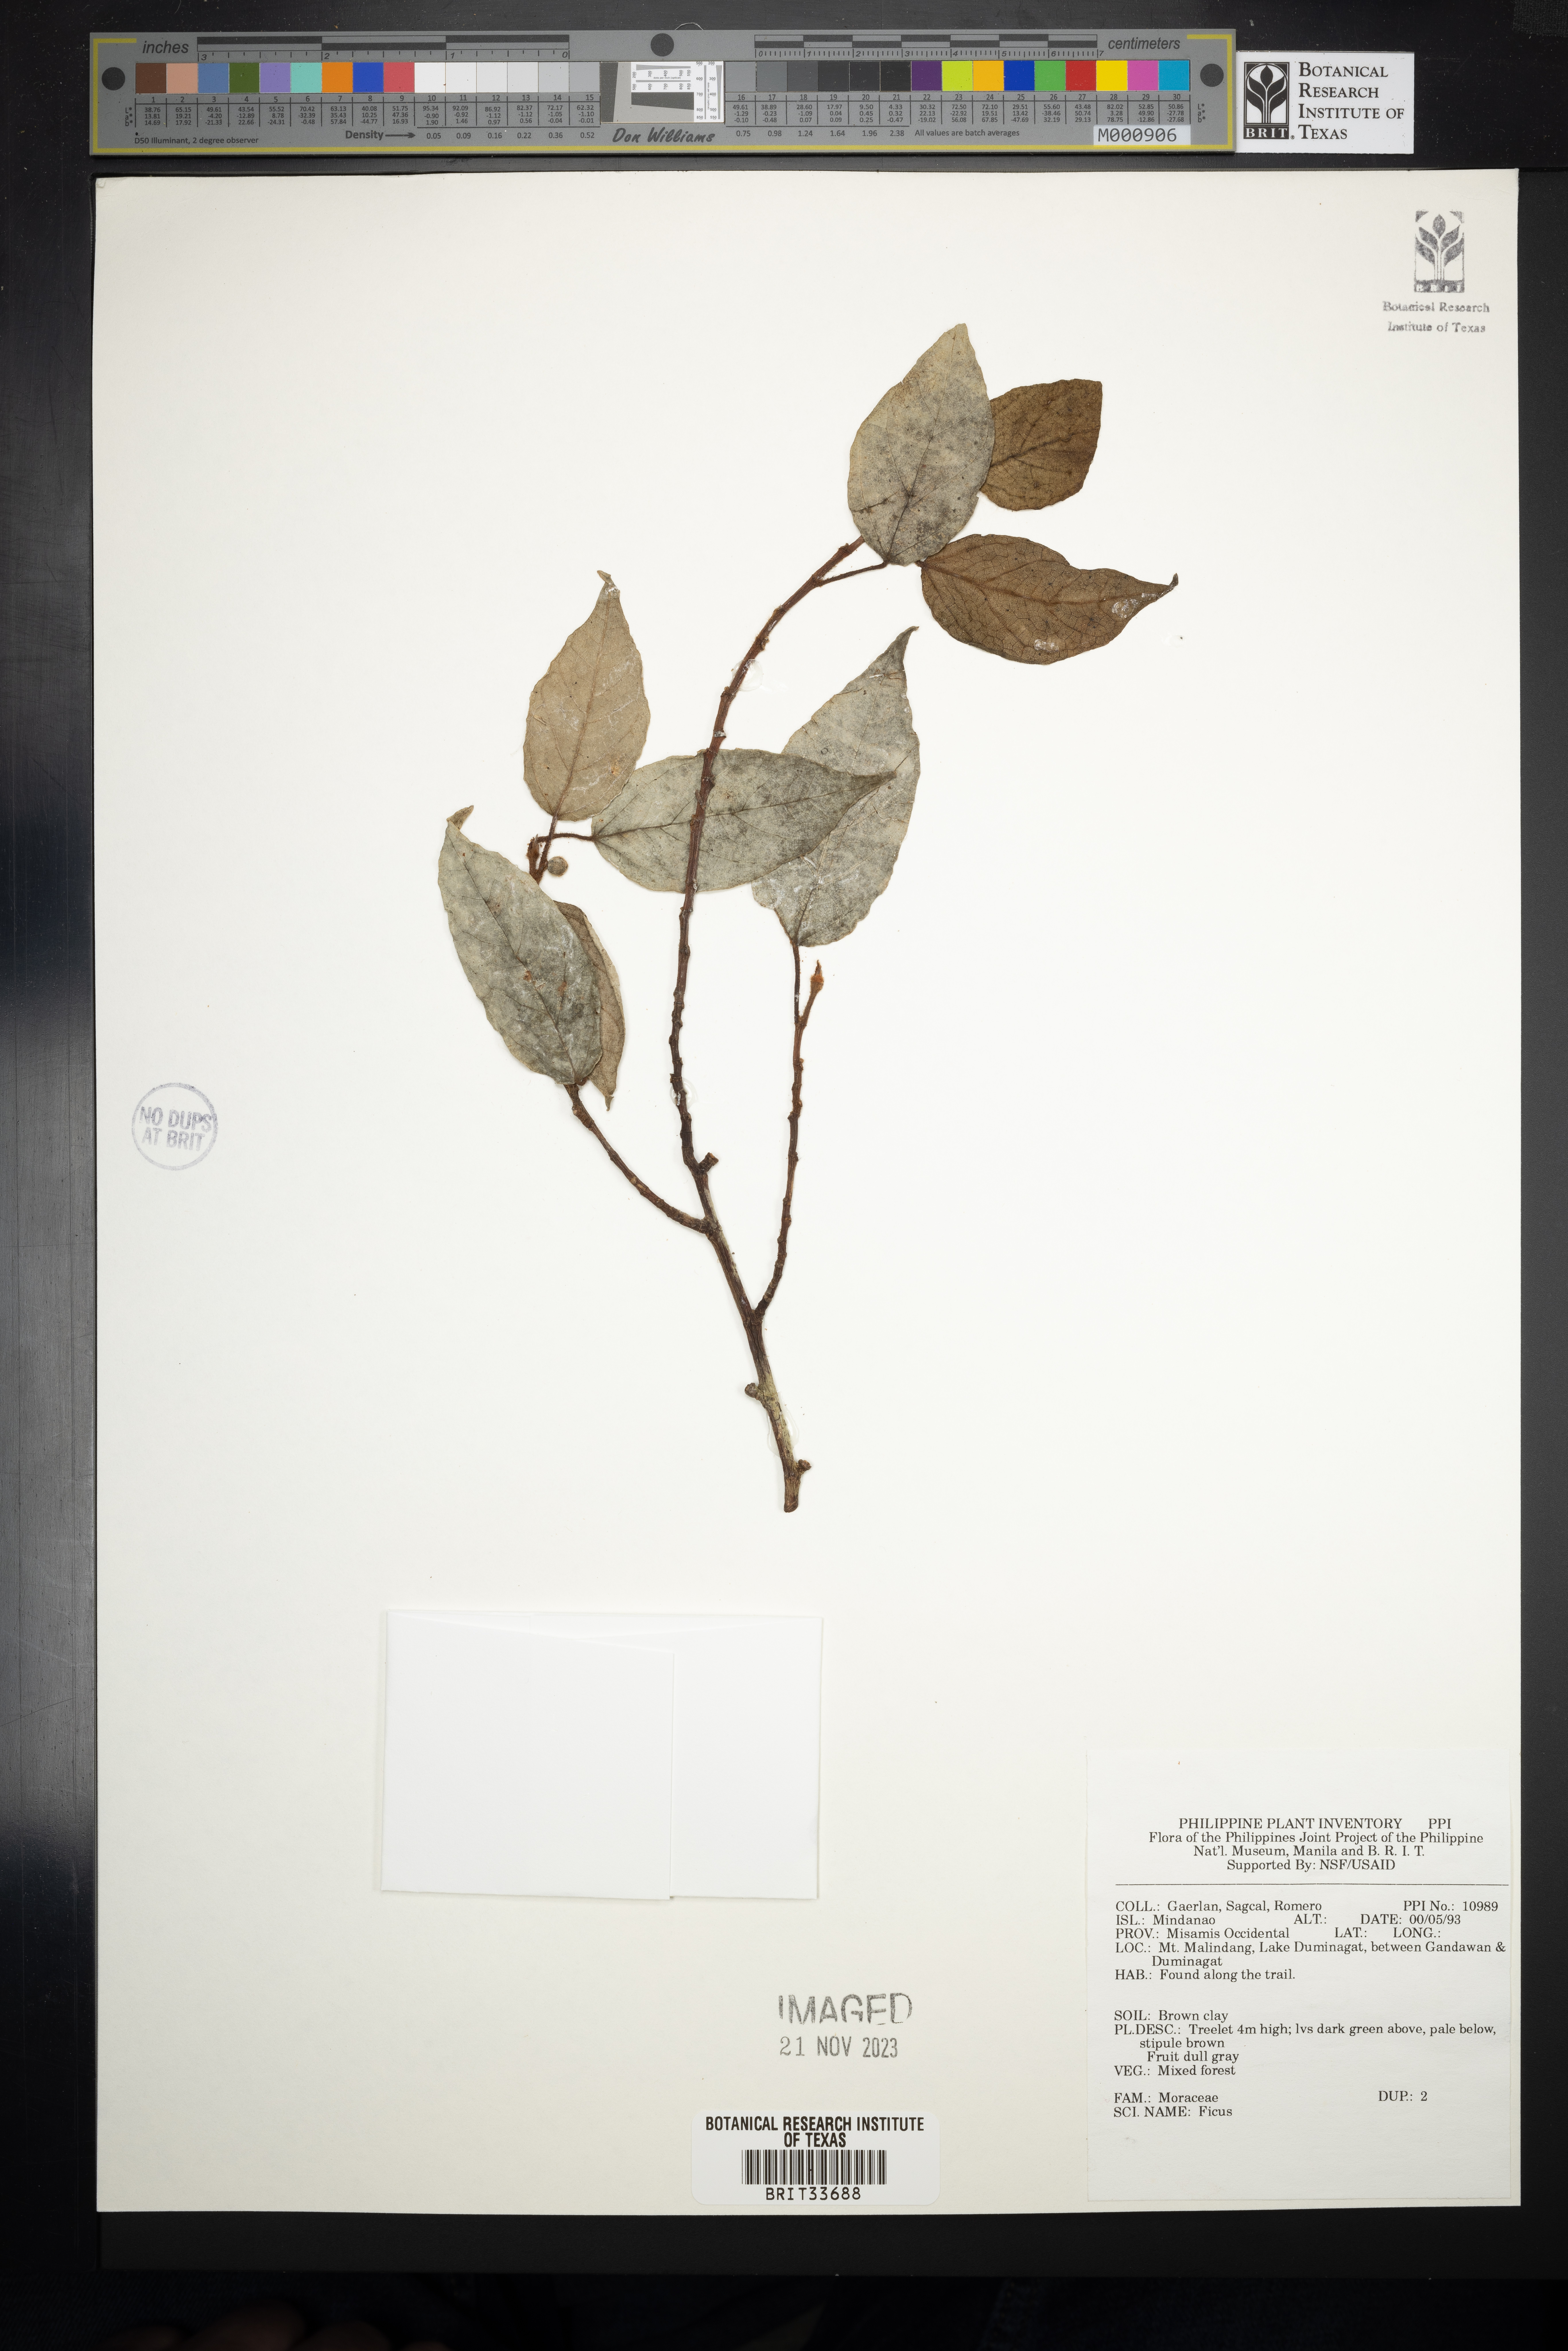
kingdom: Plantae
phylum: Tracheophyta
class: Magnoliopsida
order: Rosales
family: Moraceae
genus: Ficus
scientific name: Ficus
